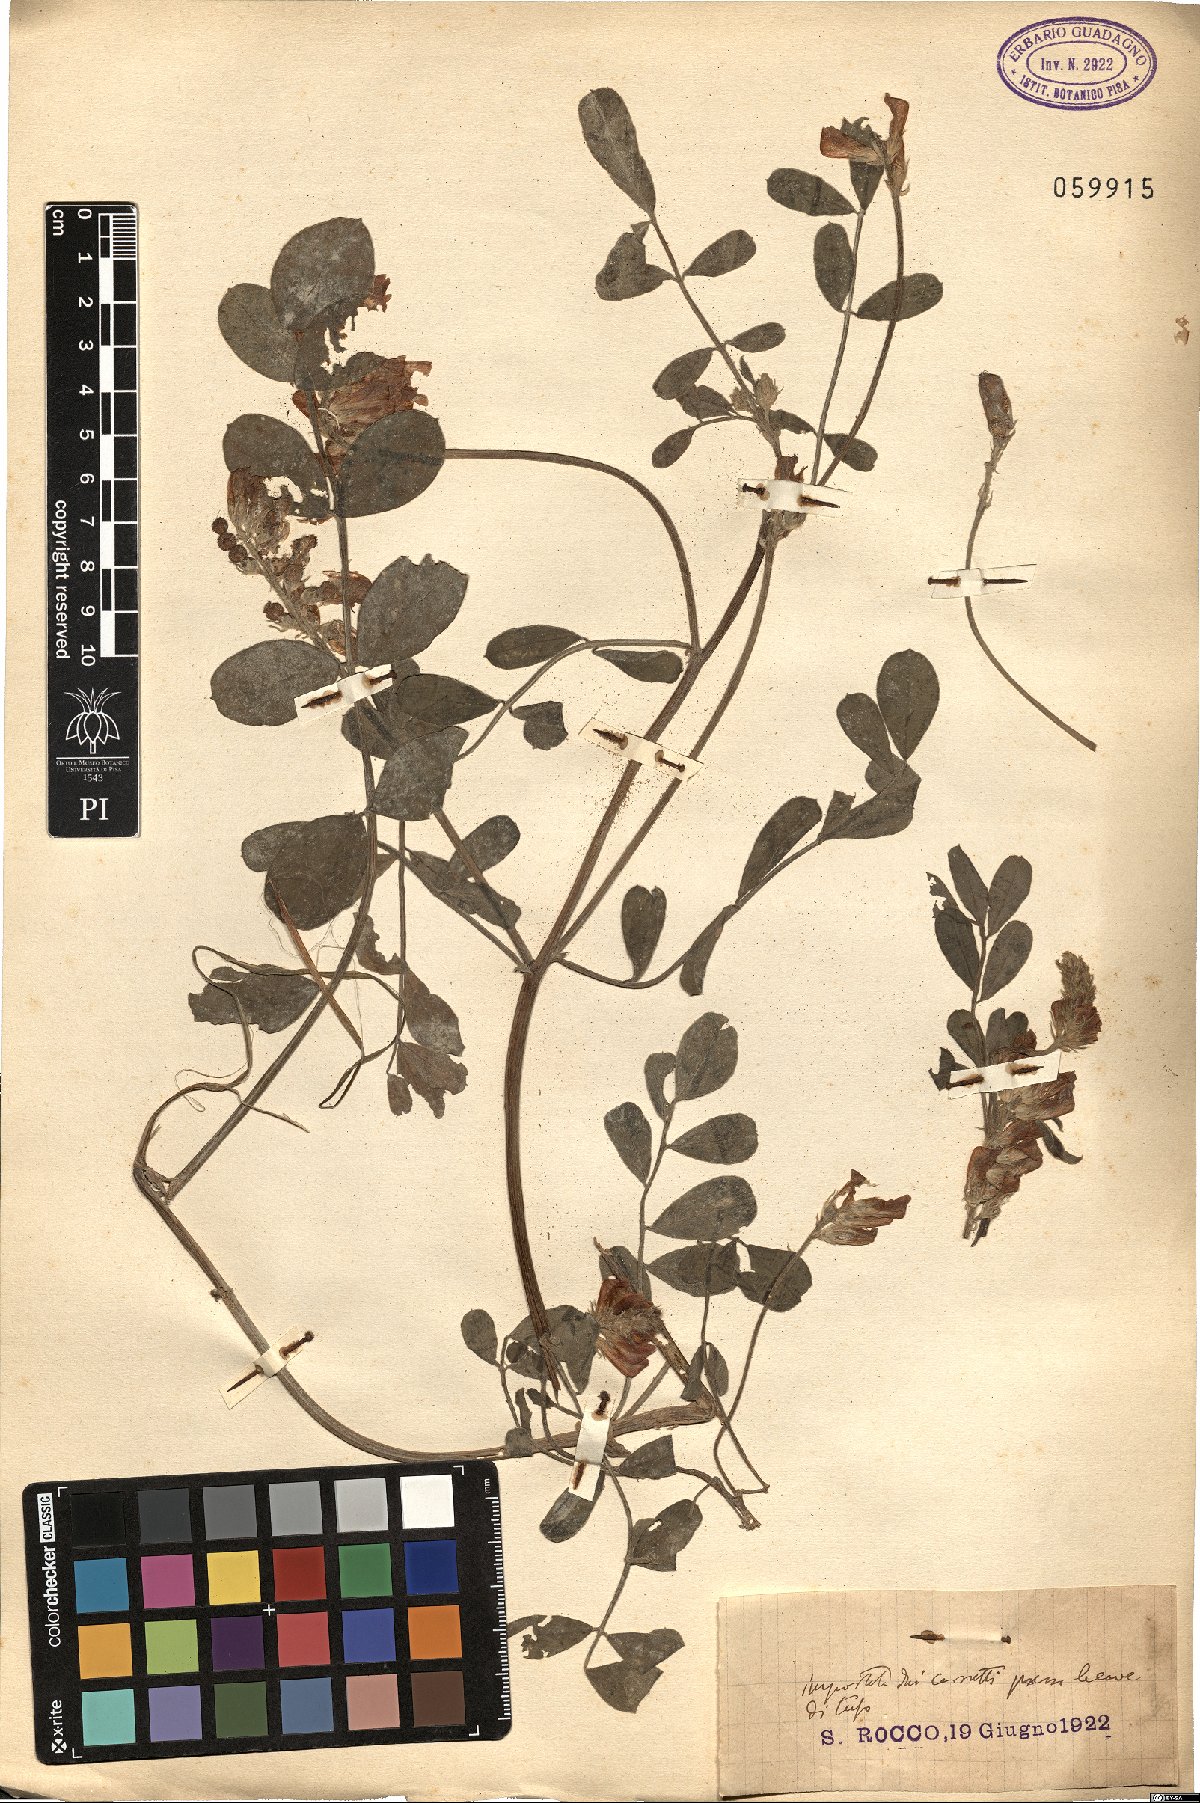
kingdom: Plantae
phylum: Tracheophyta
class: Magnoliopsida
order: Fabales
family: Fabaceae
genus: Sulla
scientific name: Sulla coronaria
